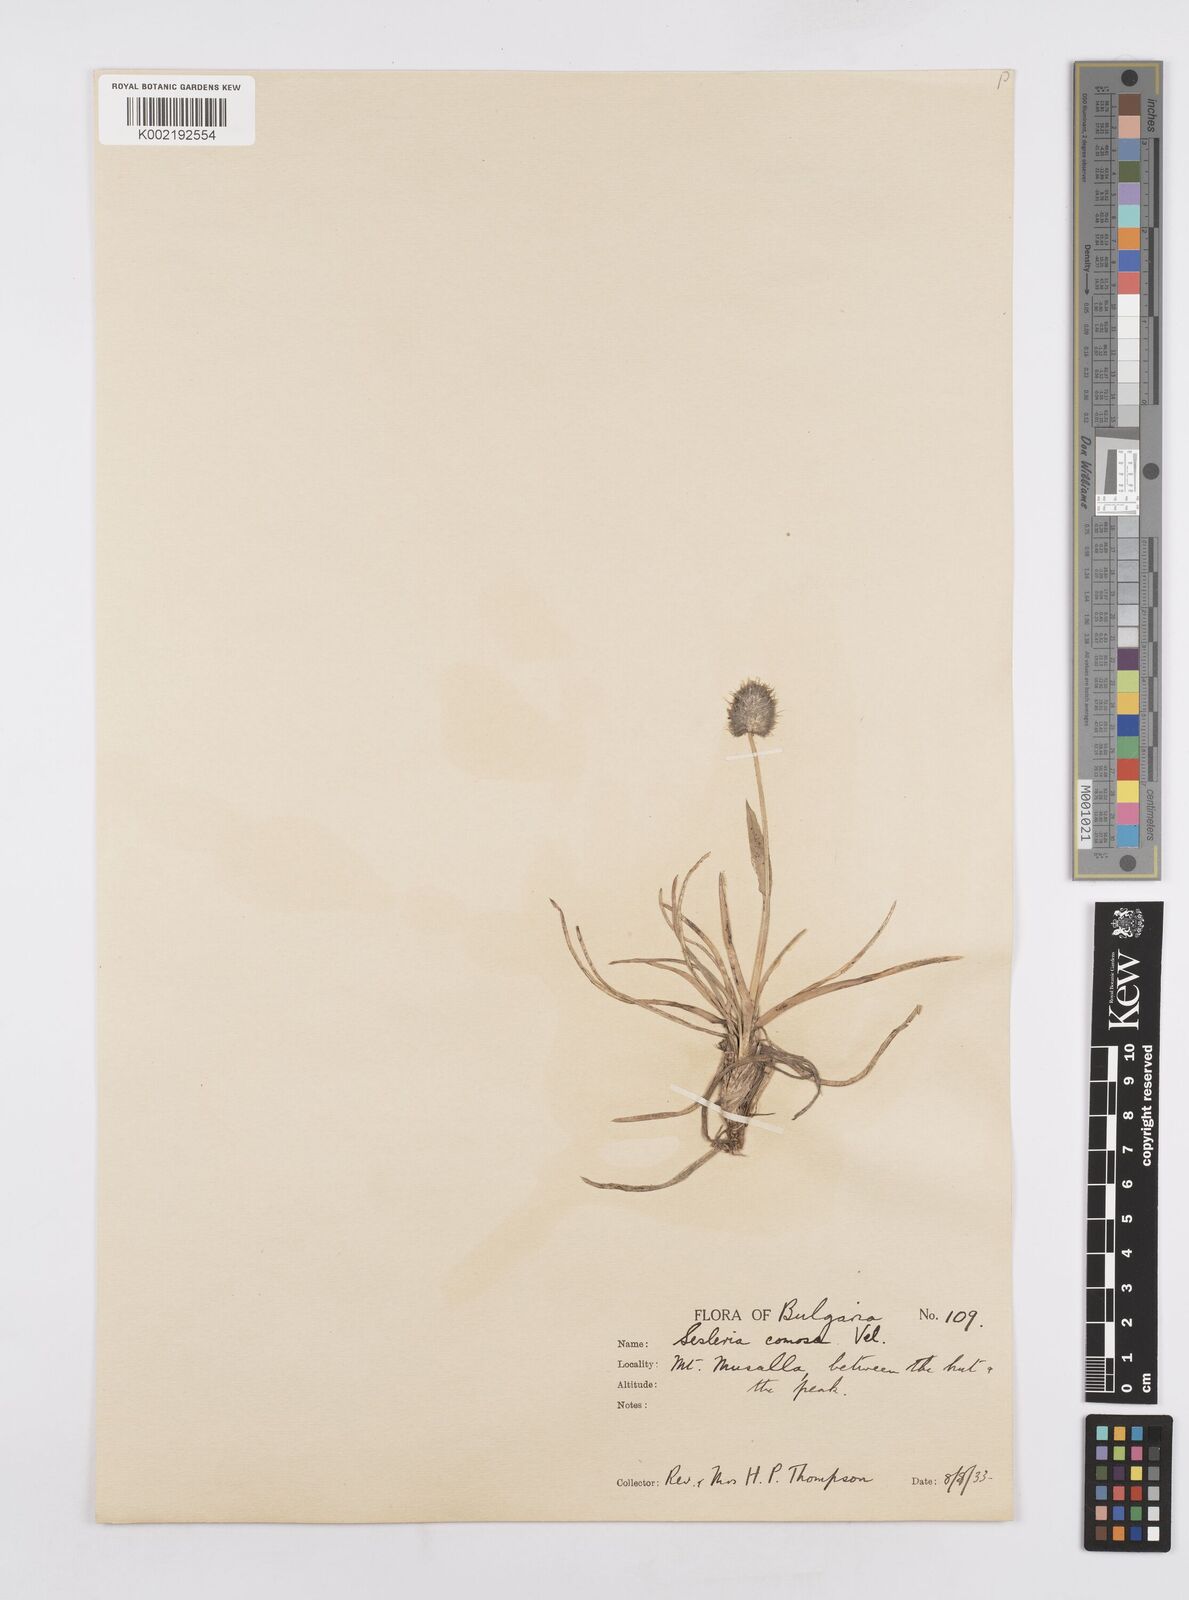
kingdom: Plantae
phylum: Tracheophyta
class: Liliopsida
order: Poales
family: Poaceae
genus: Sesleria
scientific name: Sesleria comosa
